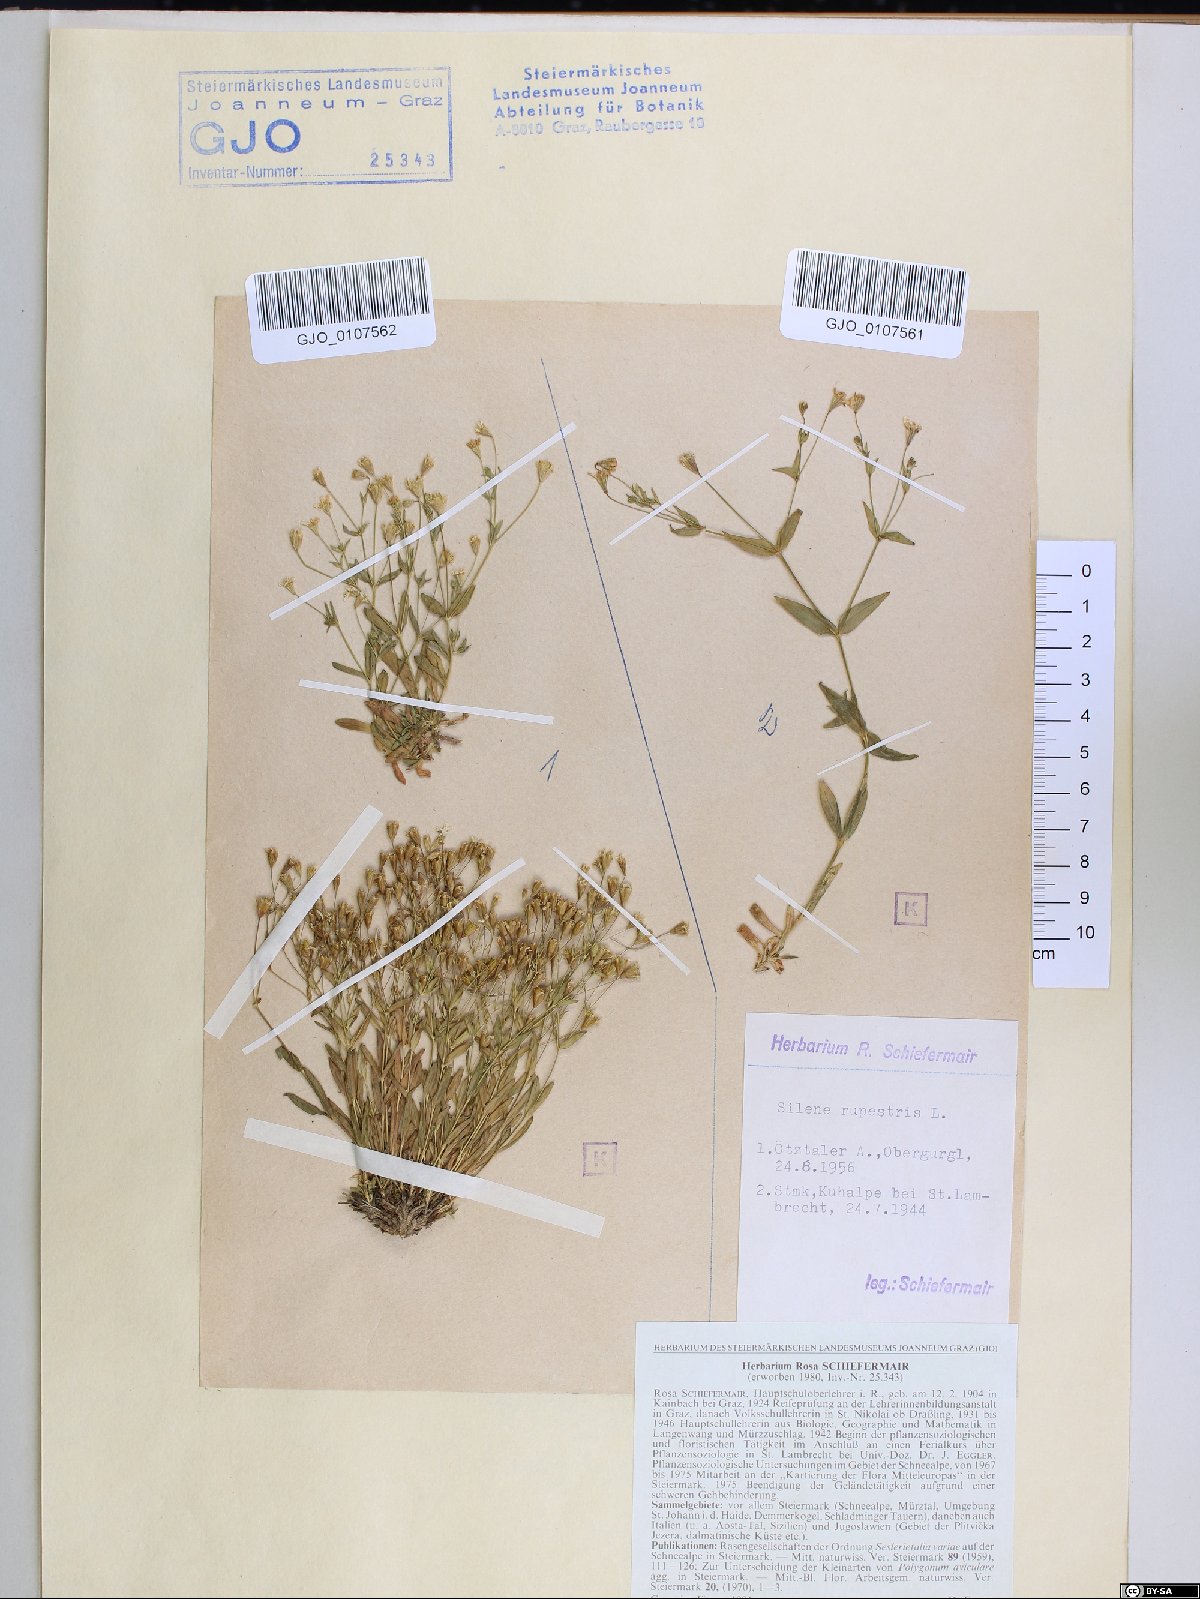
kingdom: Plantae
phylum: Tracheophyta
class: Magnoliopsida
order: Caryophyllales
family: Caryophyllaceae
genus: Atocion
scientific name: Atocion rupestre
